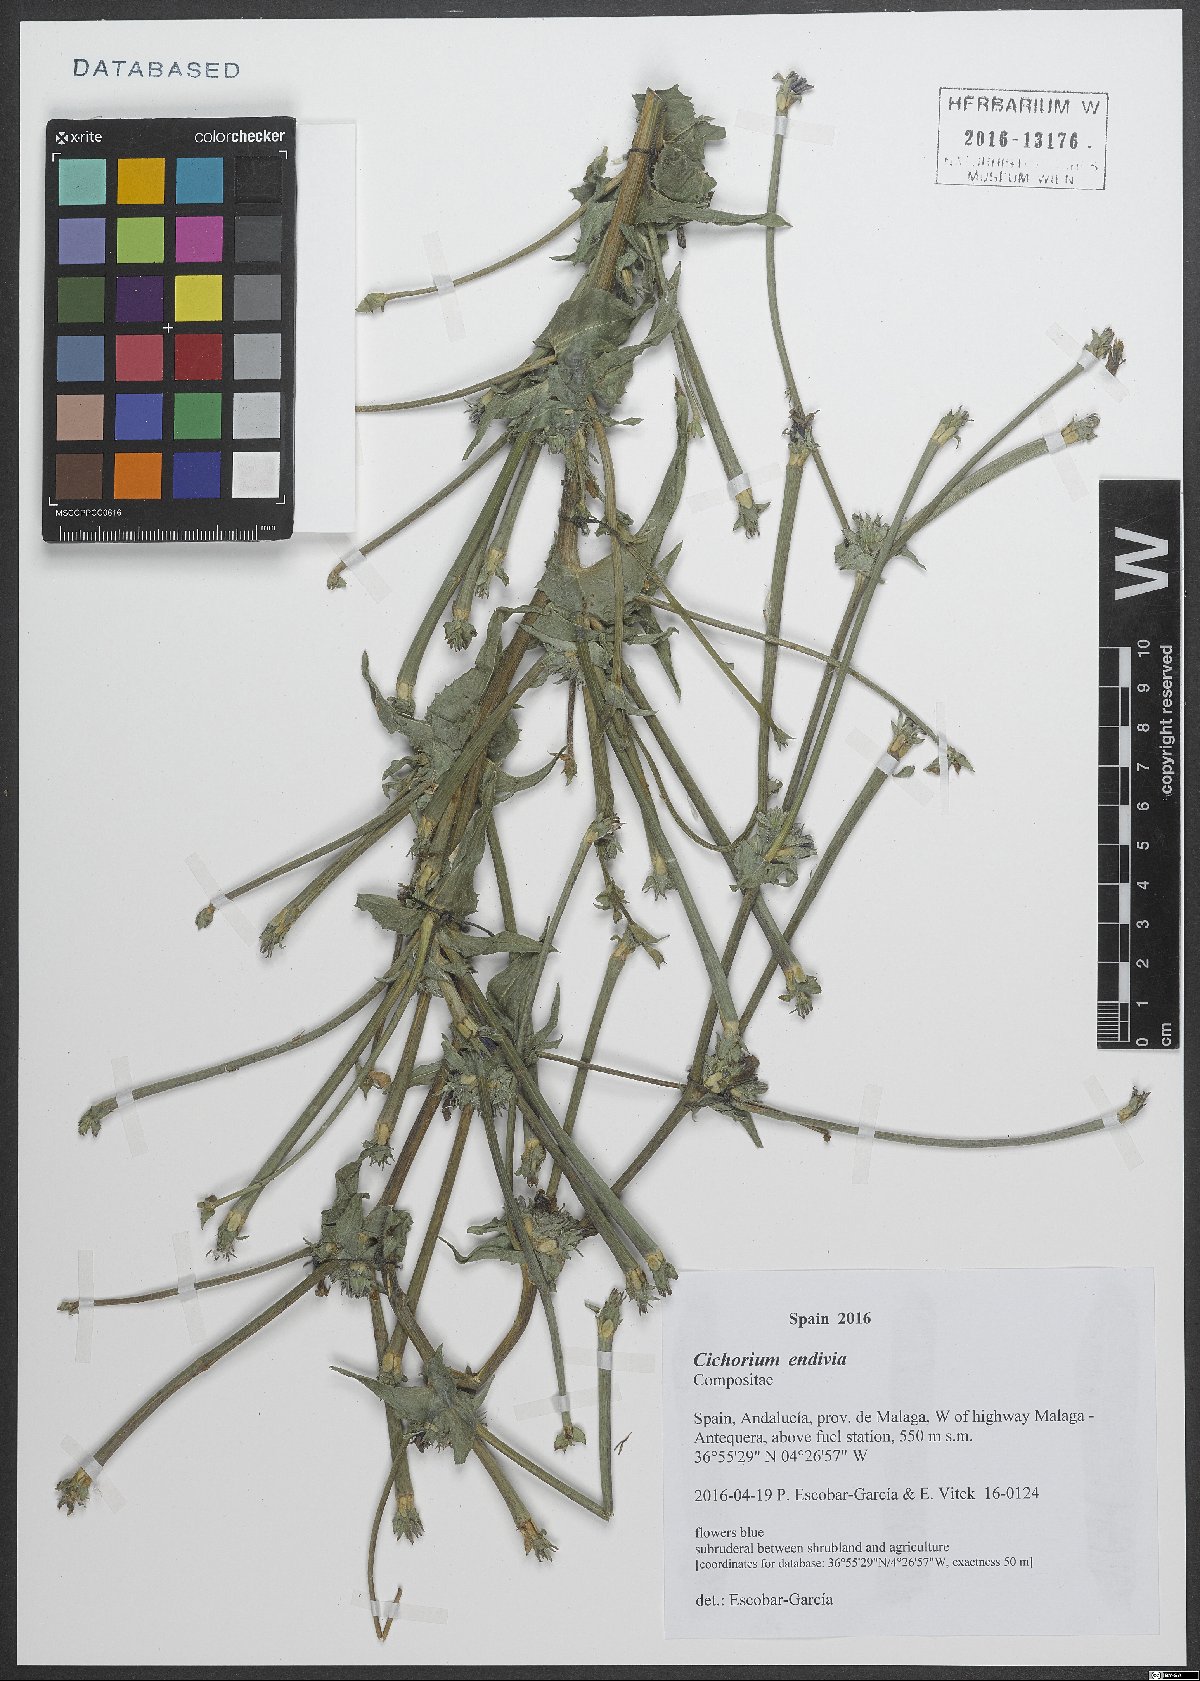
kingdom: Plantae
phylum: Tracheophyta
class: Magnoliopsida
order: Asterales
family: Asteraceae
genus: Cichorium
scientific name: Cichorium endivia
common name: Endive
